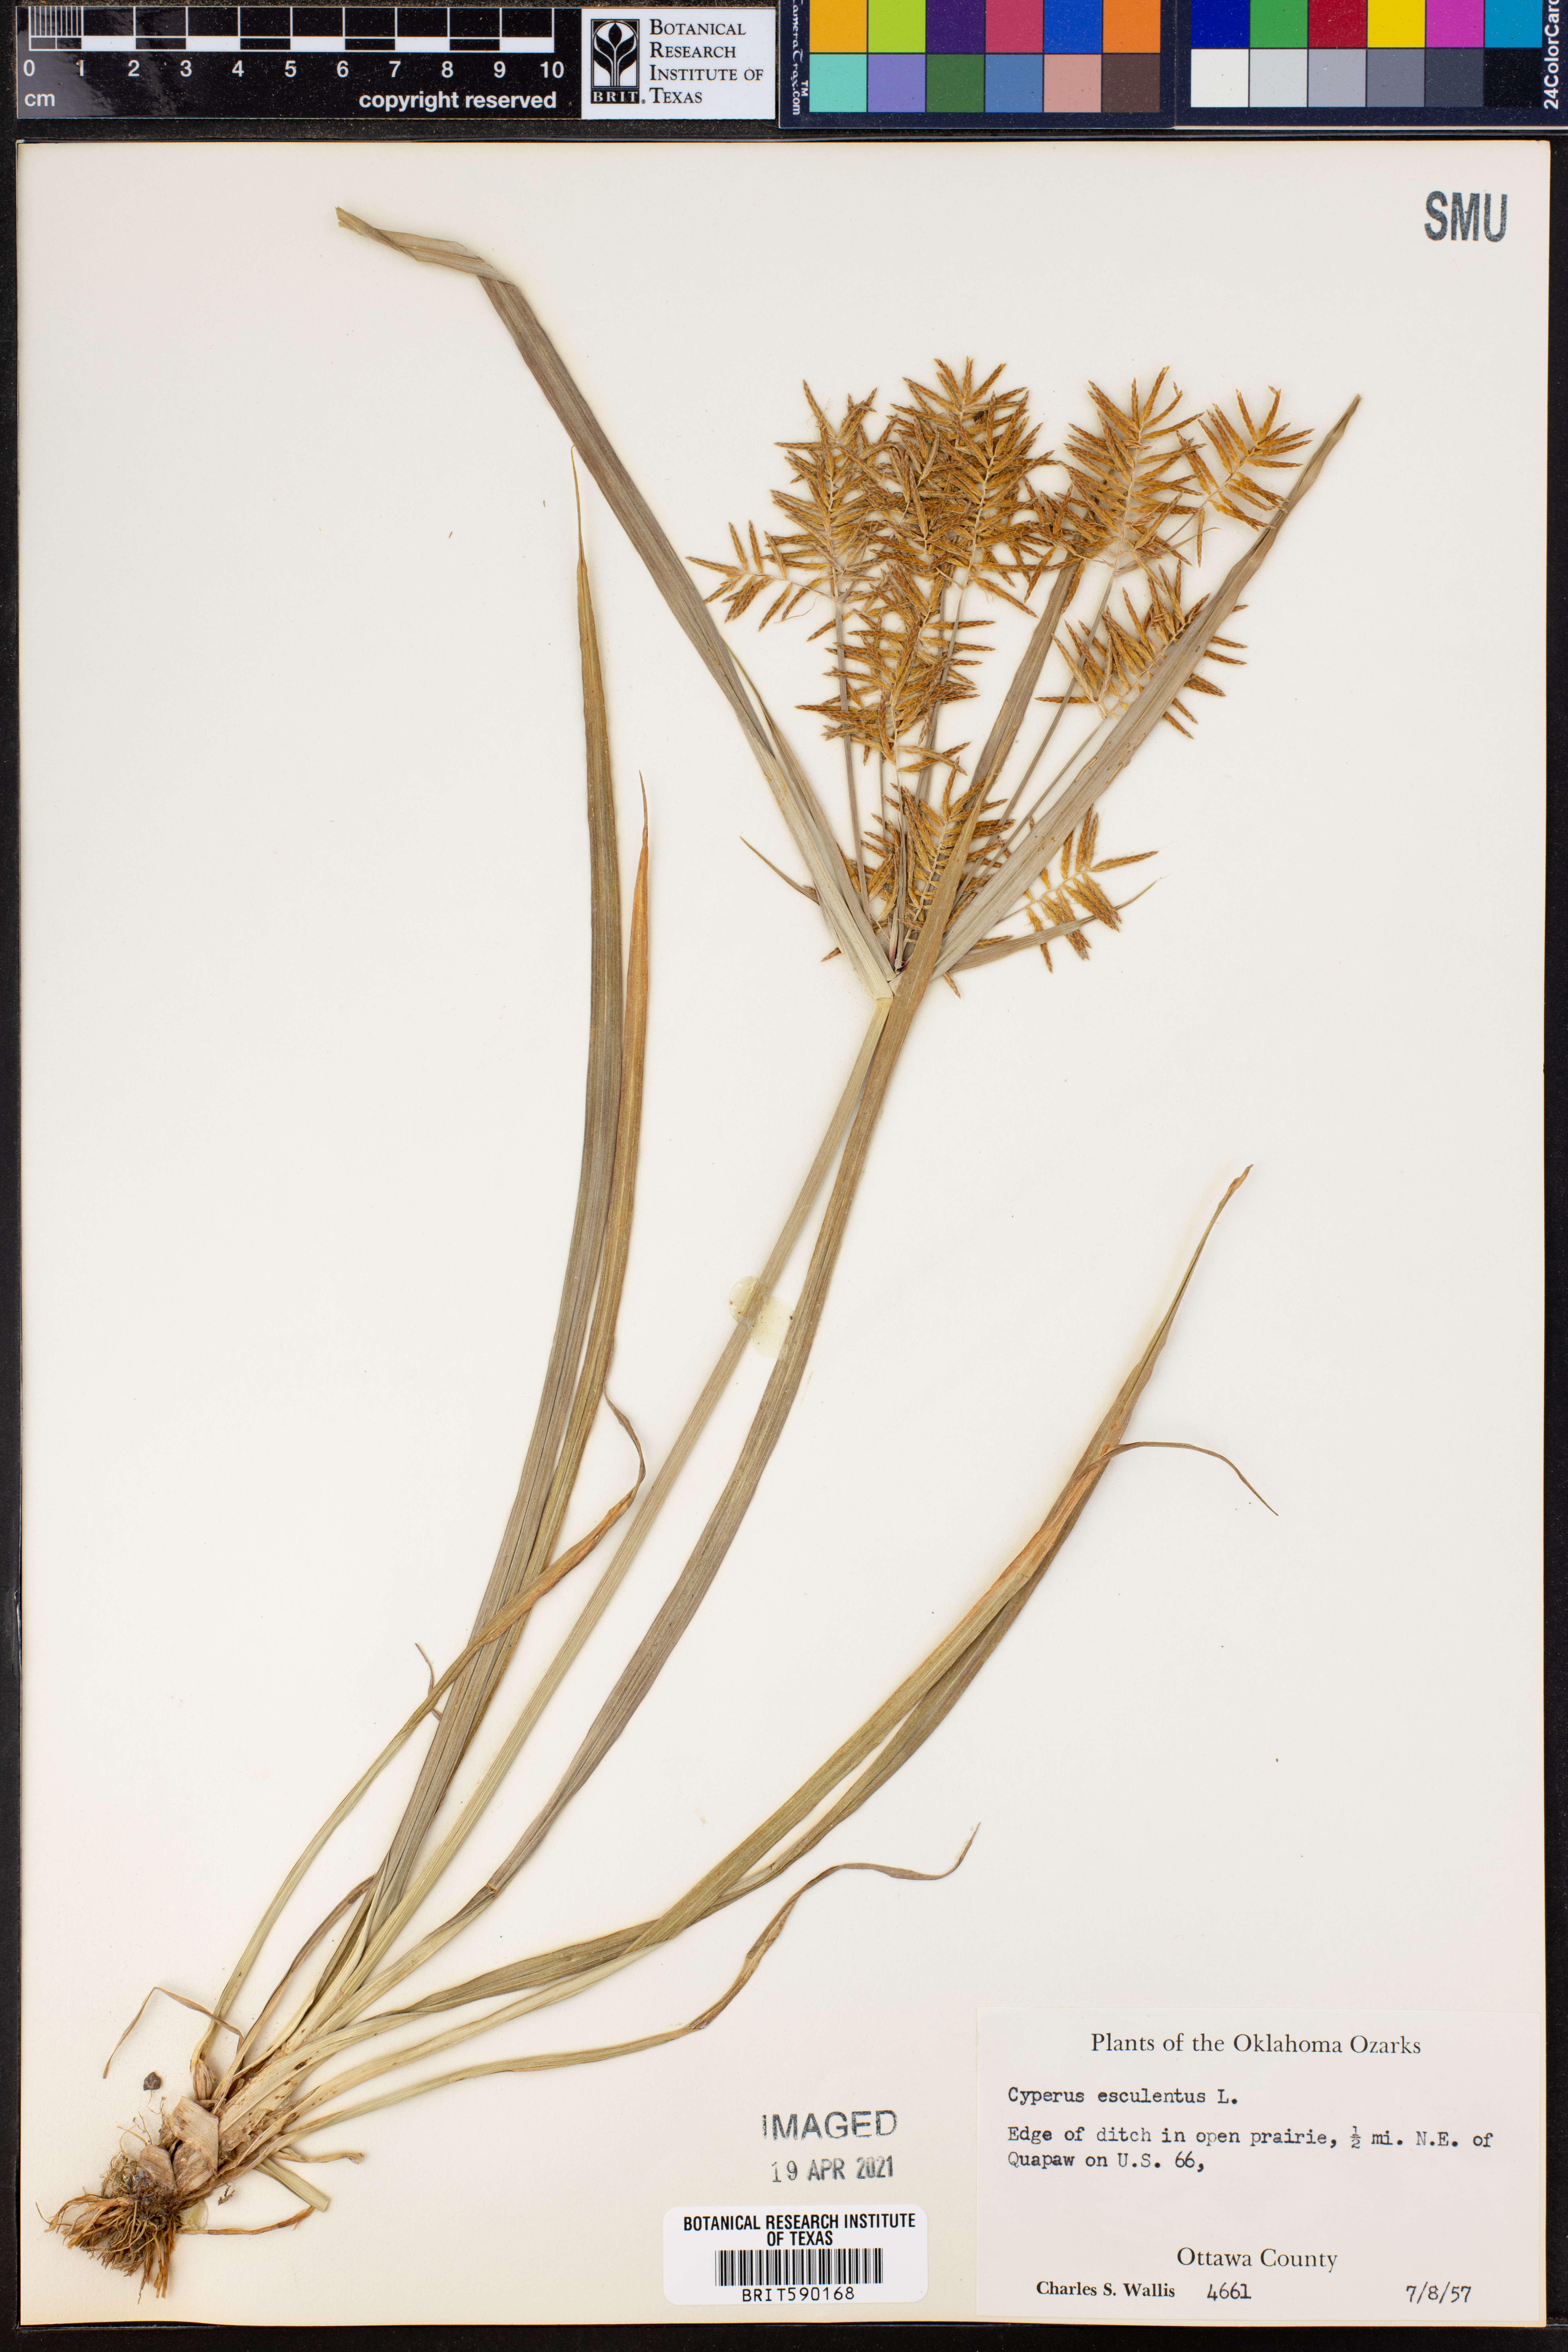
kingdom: Plantae
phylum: Tracheophyta
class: Liliopsida
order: Poales
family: Cyperaceae
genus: Cyperus
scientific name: Cyperus esculentus
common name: Yellow nutsedge
